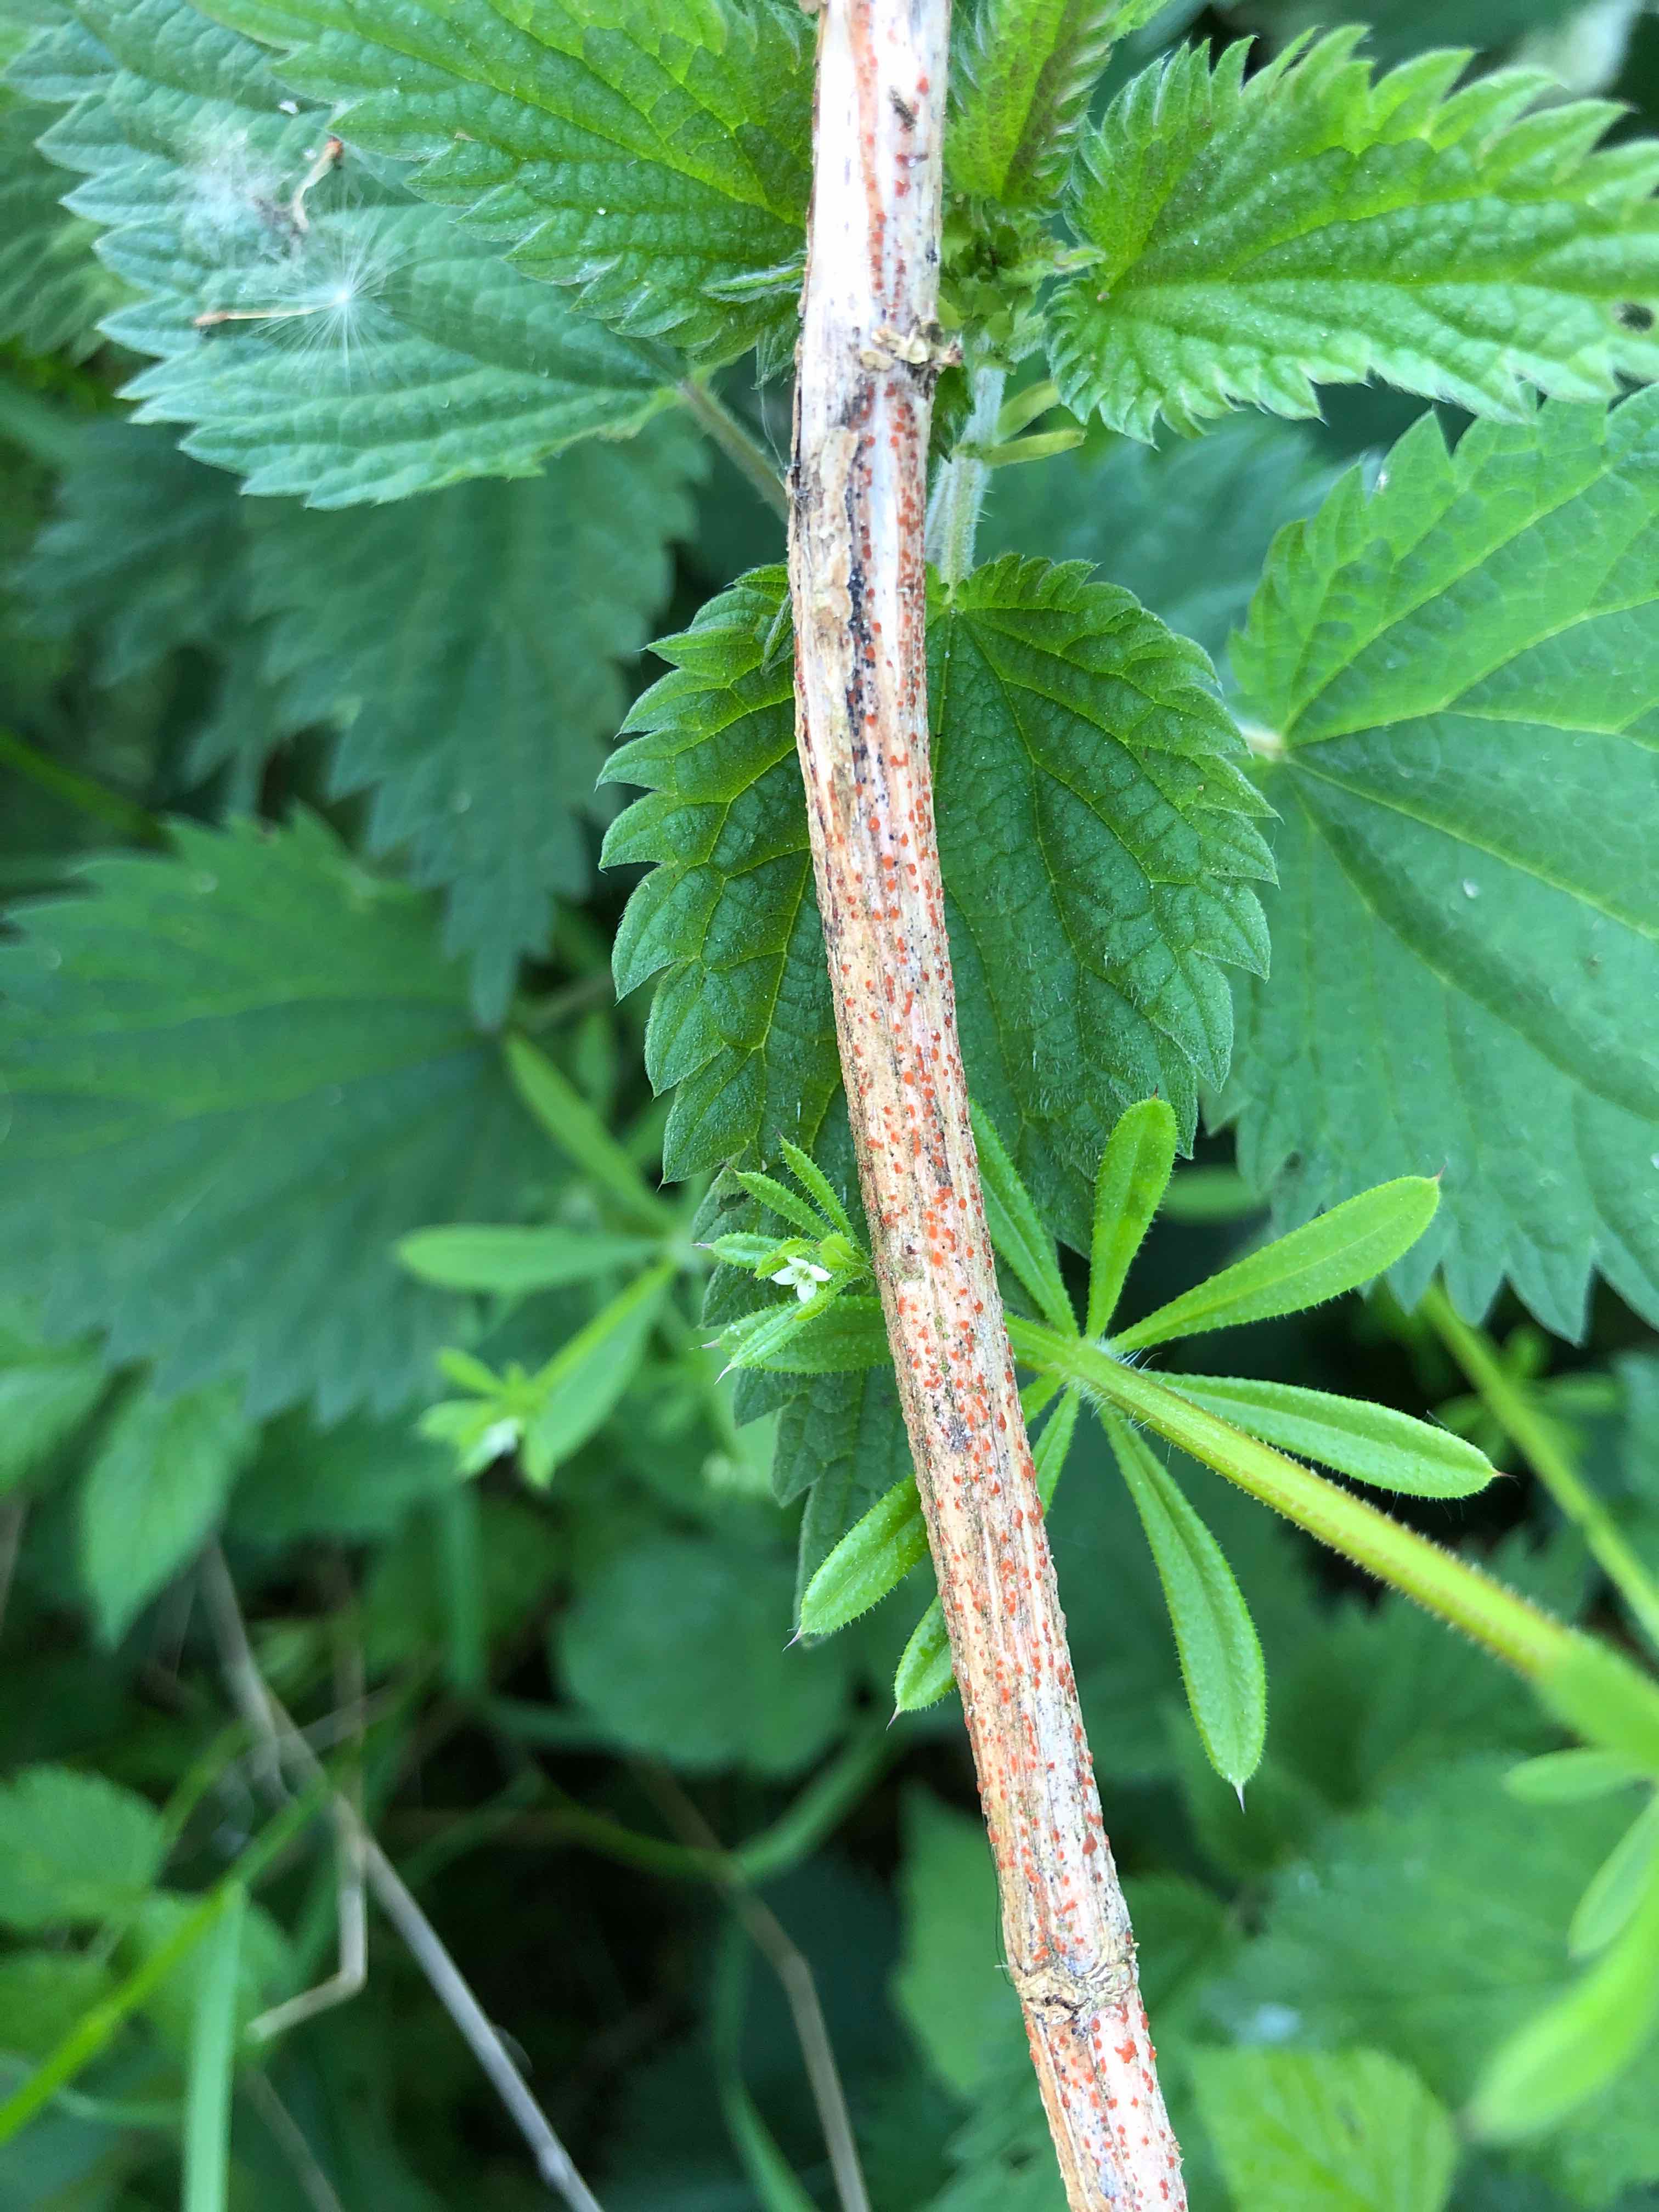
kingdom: Fungi
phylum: Ascomycota
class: Leotiomycetes
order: Helotiales
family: Calloriaceae
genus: Calloria
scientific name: Calloria urticae
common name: nælde-orangeskive
